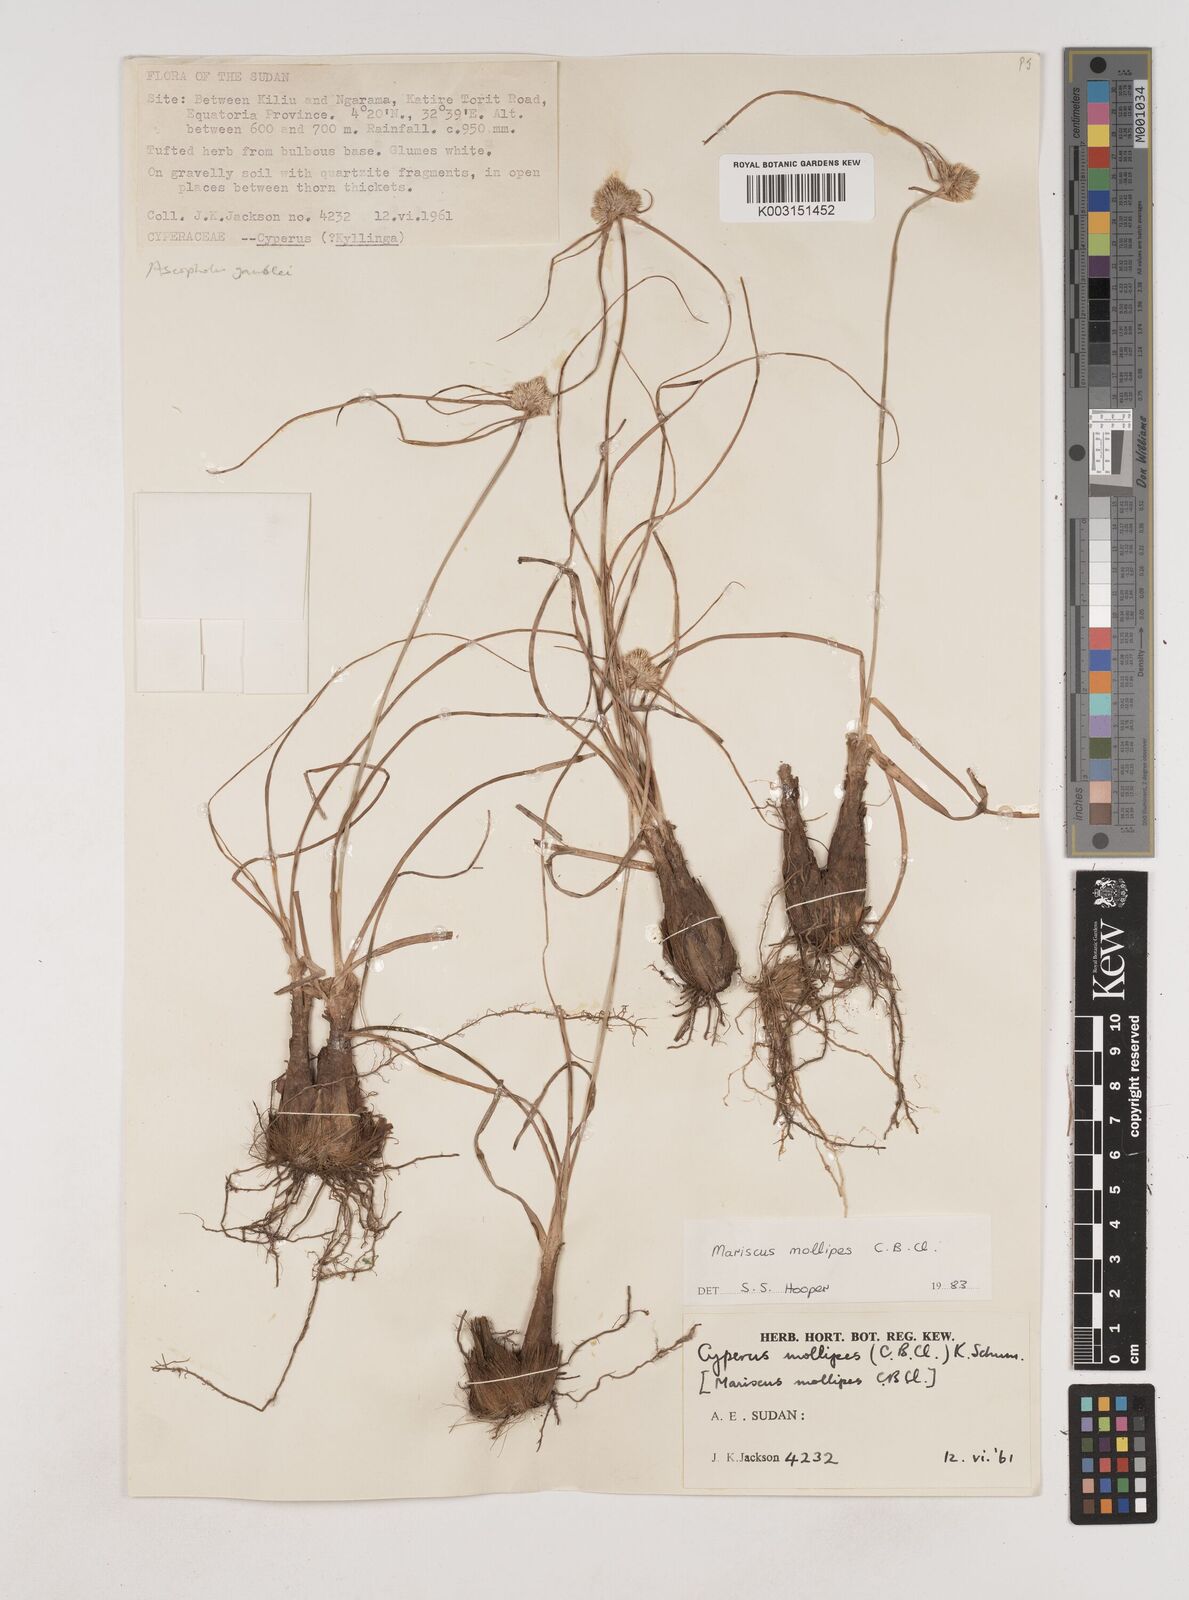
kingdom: Plantae
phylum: Tracheophyta
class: Liliopsida
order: Poales
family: Cyperaceae
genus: Cyperus
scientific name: Cyperus mollipes
